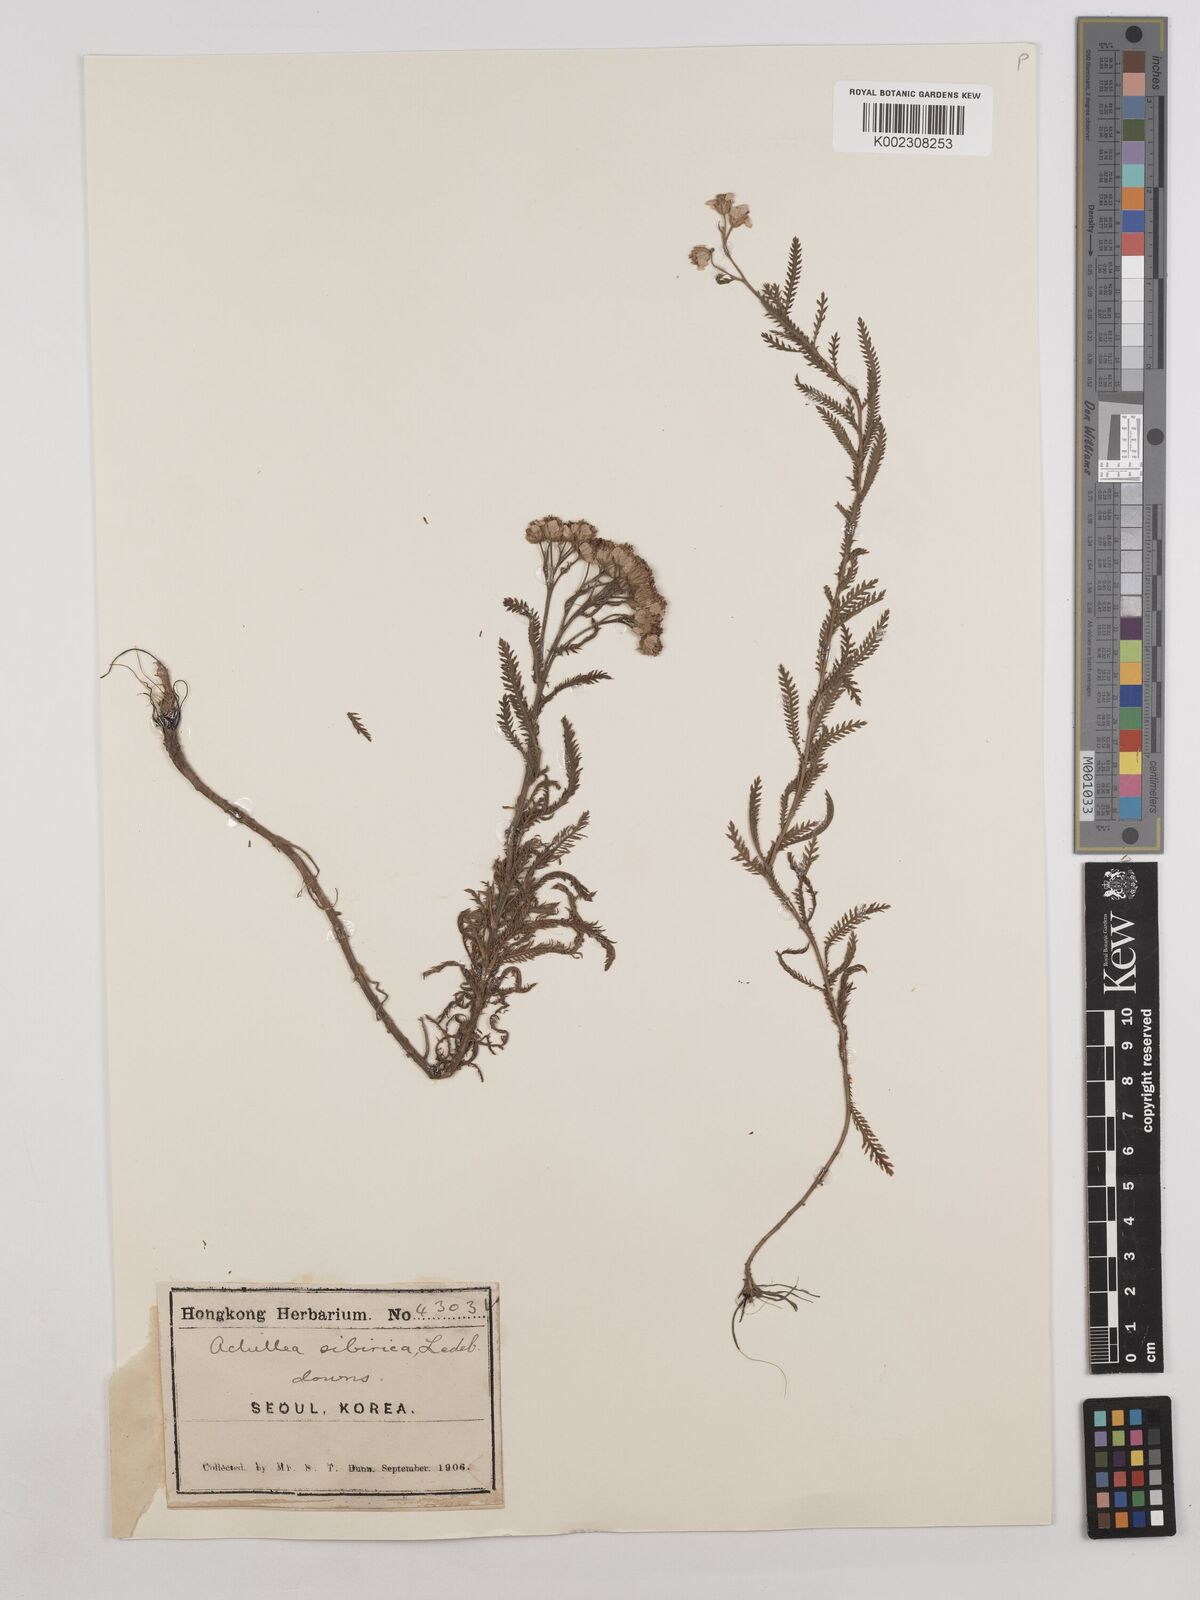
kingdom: Plantae
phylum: Tracheophyta
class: Magnoliopsida
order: Asterales
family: Asteraceae
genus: Achillea
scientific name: Achillea alpina
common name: Siberian yarrow
